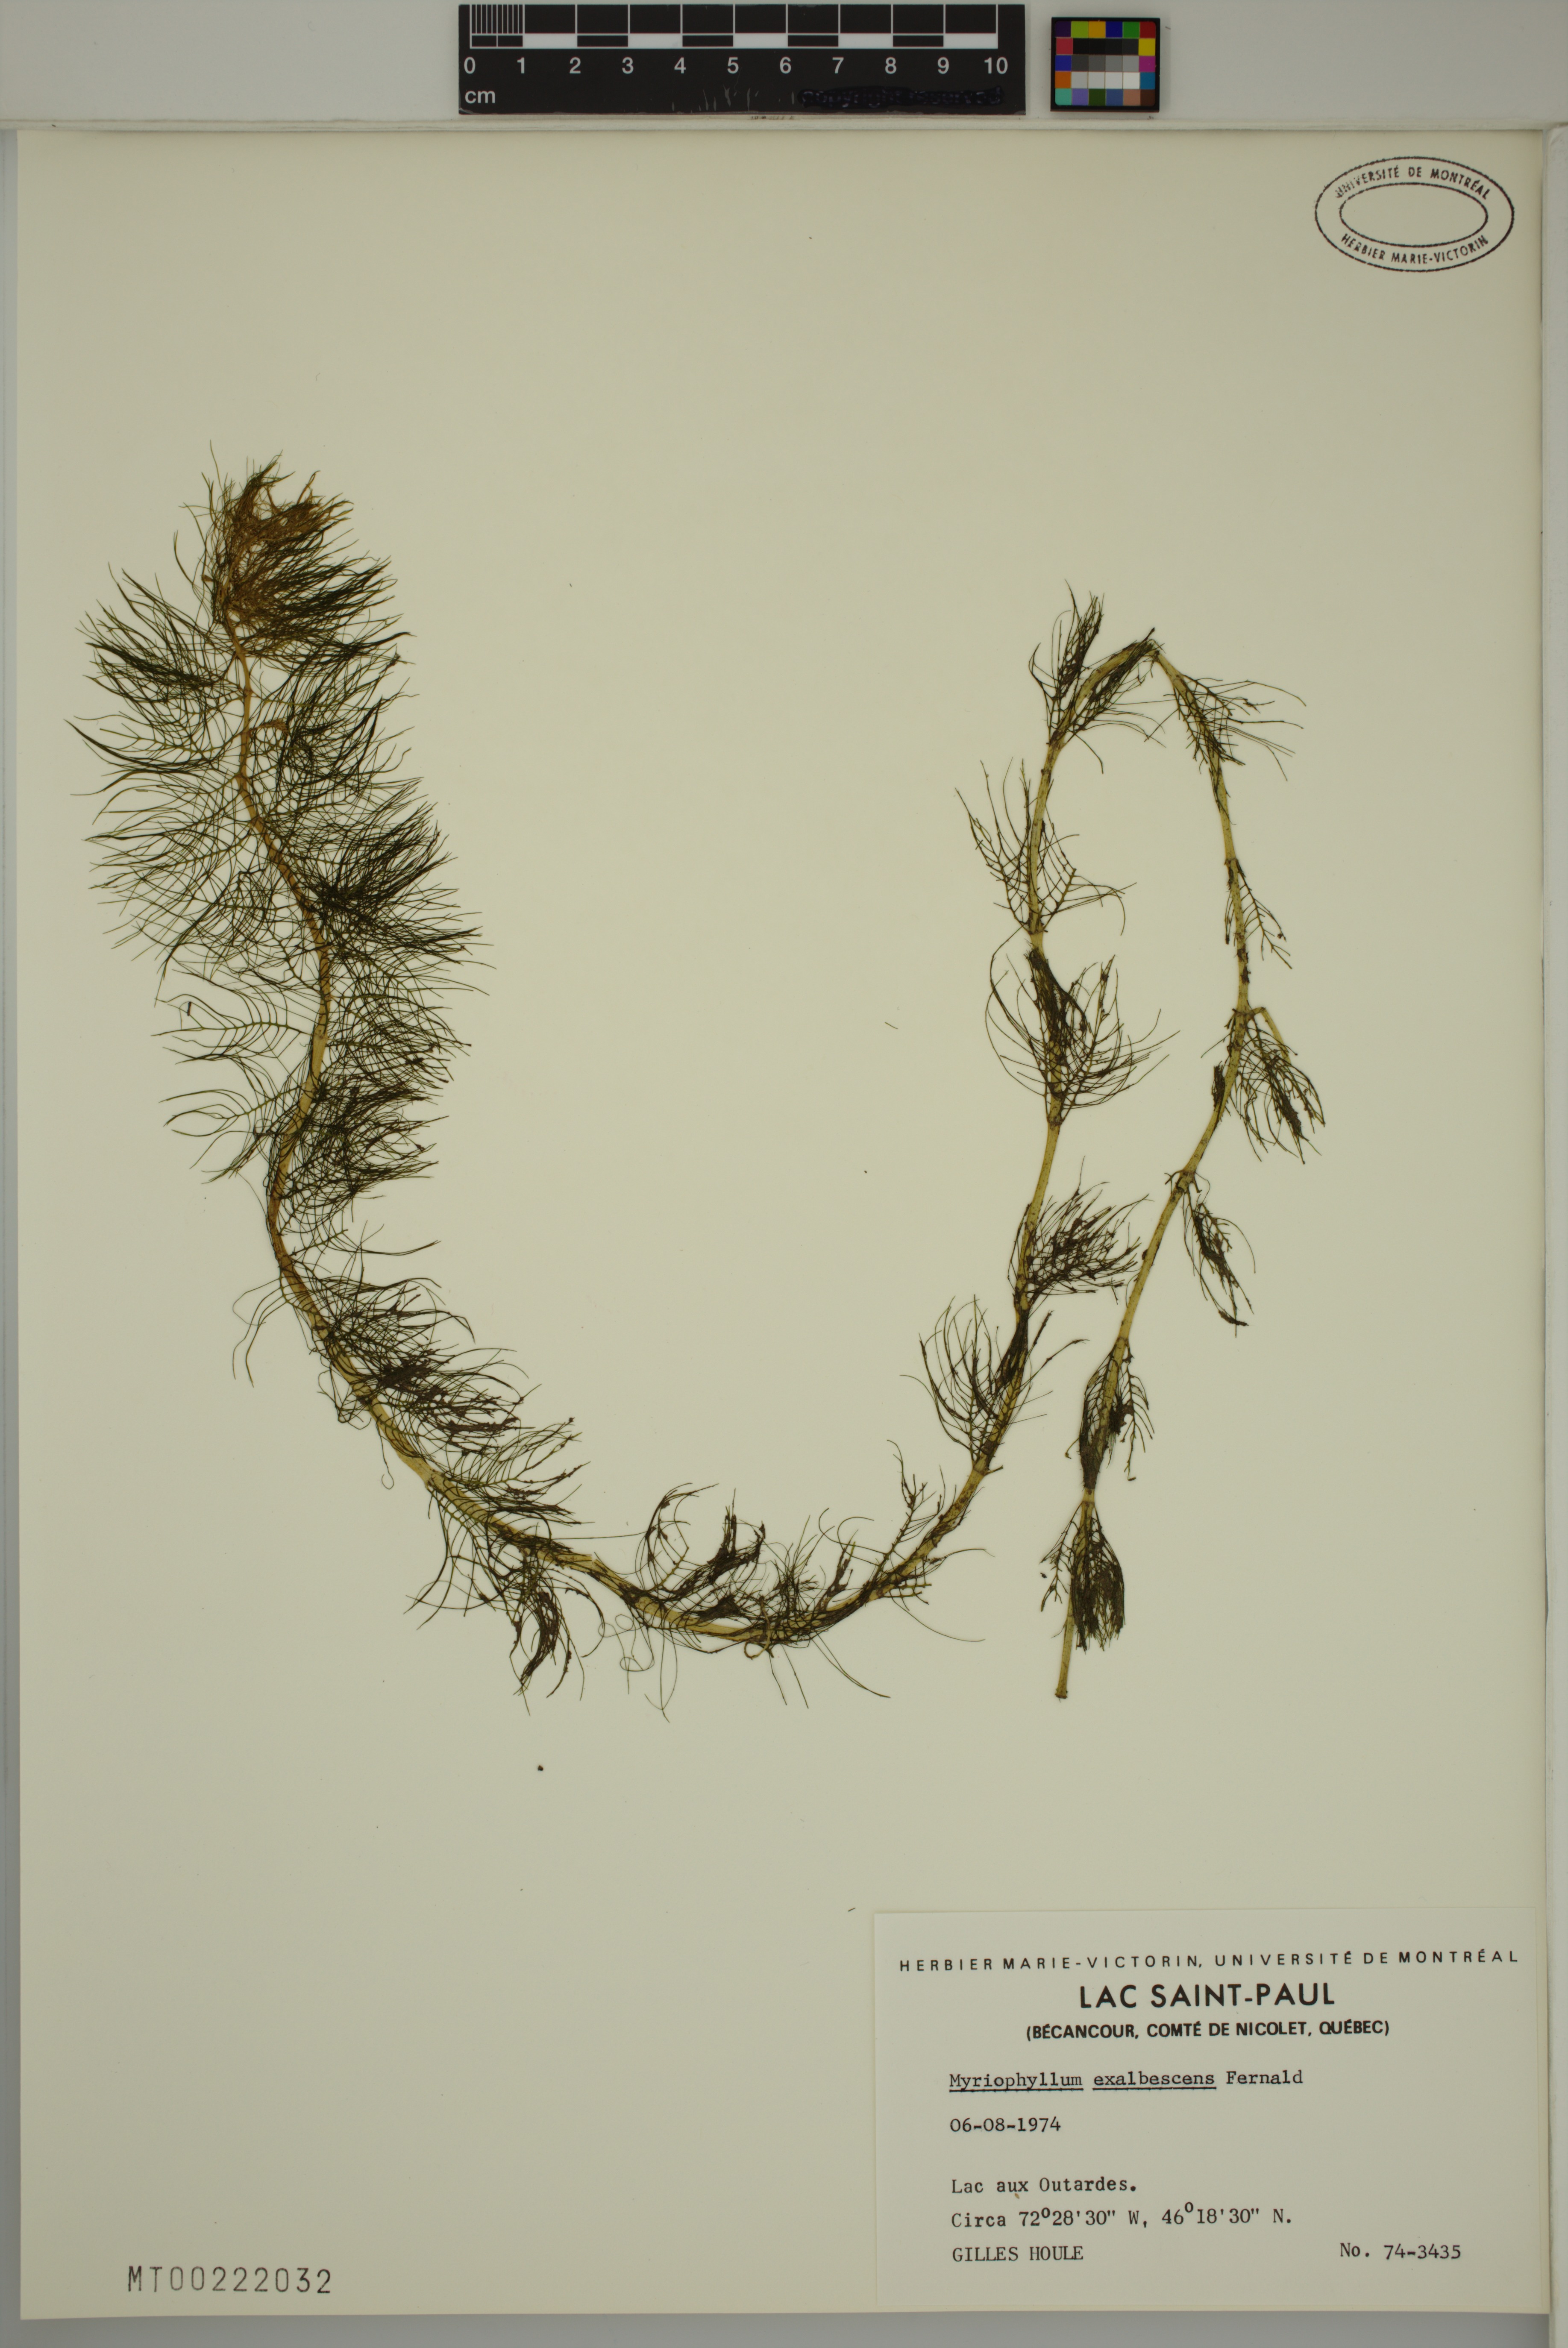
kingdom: Plantae
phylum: Tracheophyta
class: Magnoliopsida
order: Saxifragales
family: Haloragaceae
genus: Myriophyllum
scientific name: Myriophyllum sibiricum
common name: Siberian water-milfoil
